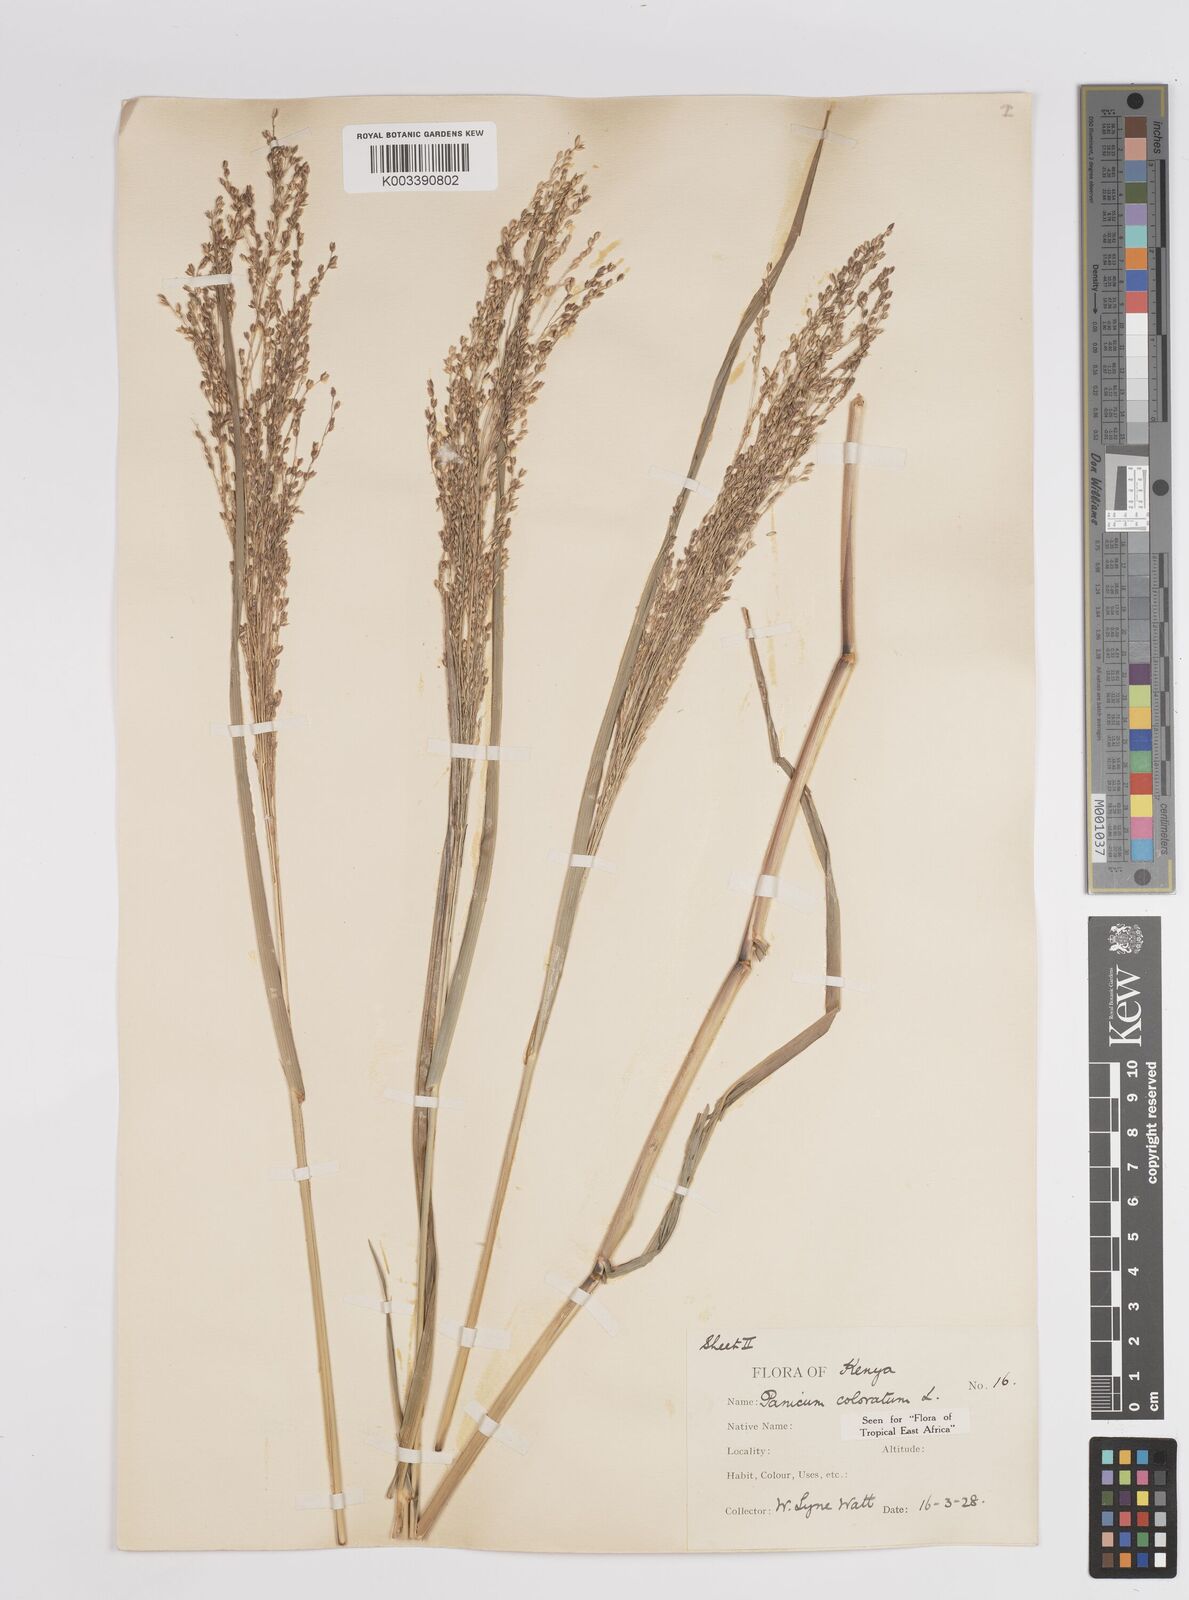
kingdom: Plantae
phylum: Tracheophyta
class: Liliopsida
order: Poales
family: Poaceae
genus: Panicum
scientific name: Panicum coloratum
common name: Kleingrass
